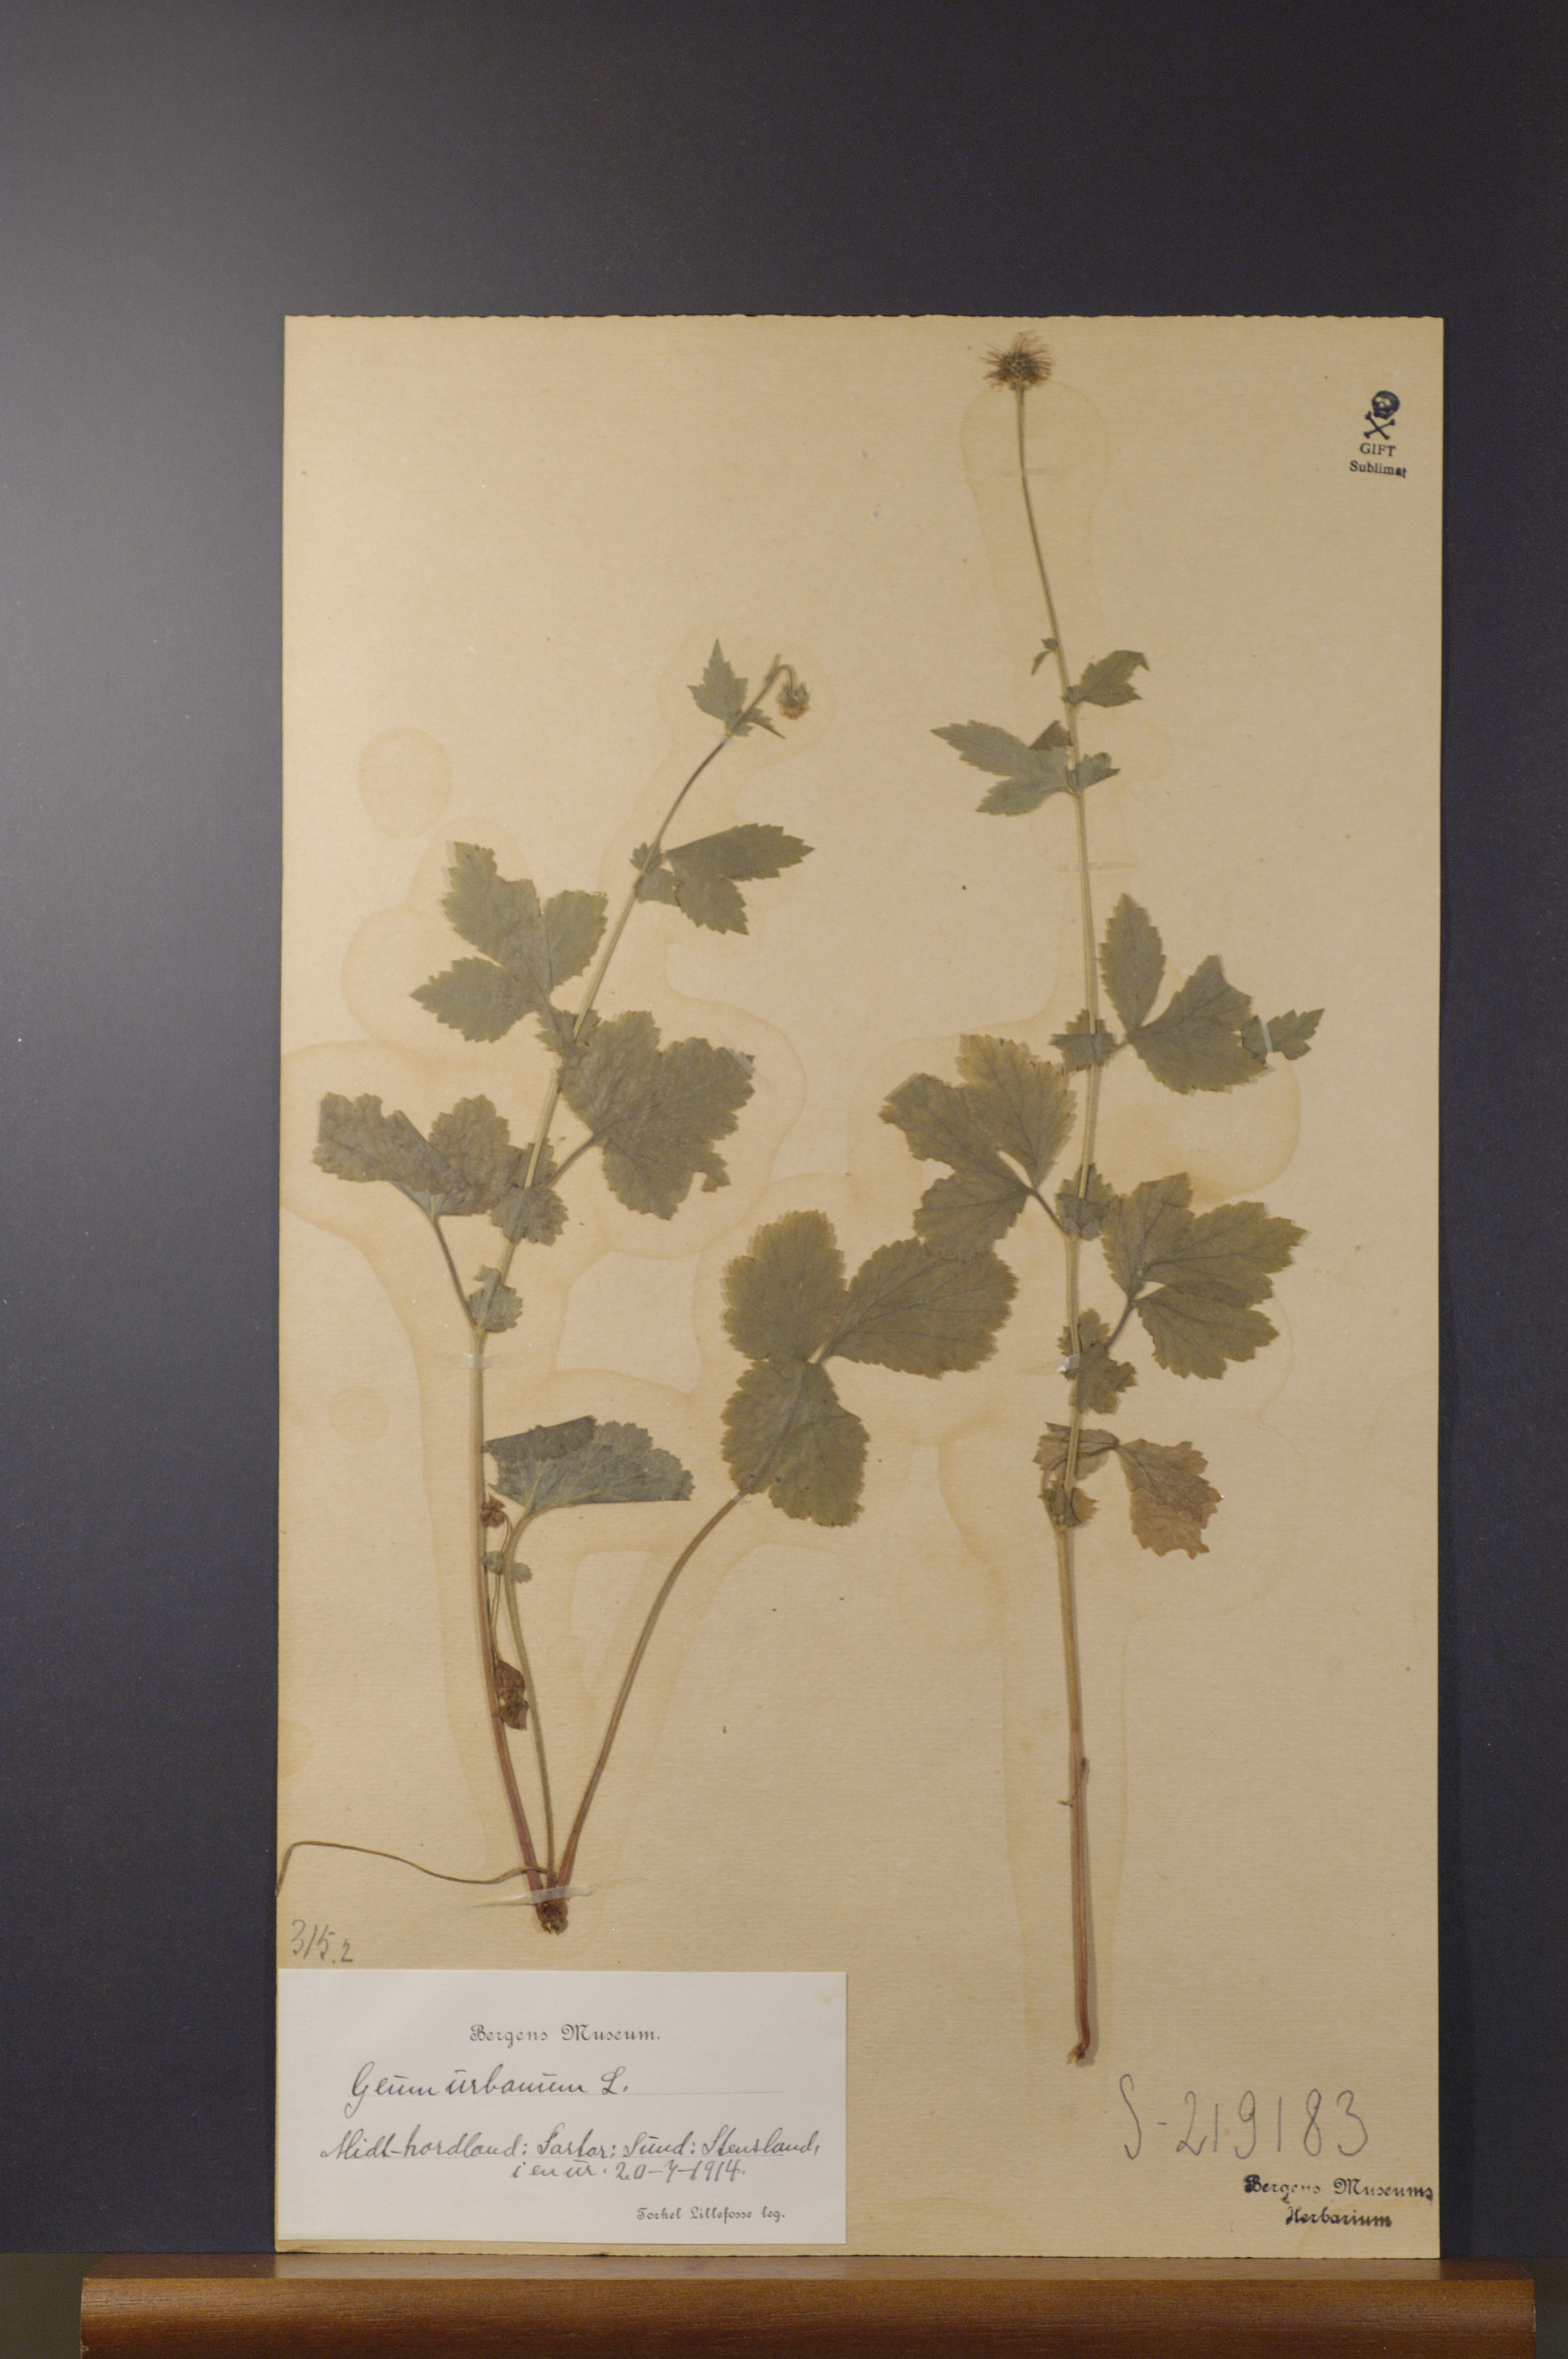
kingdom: Plantae
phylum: Tracheophyta
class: Magnoliopsida
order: Rosales
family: Rosaceae
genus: Geum
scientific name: Geum urbanum
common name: Wood avens
